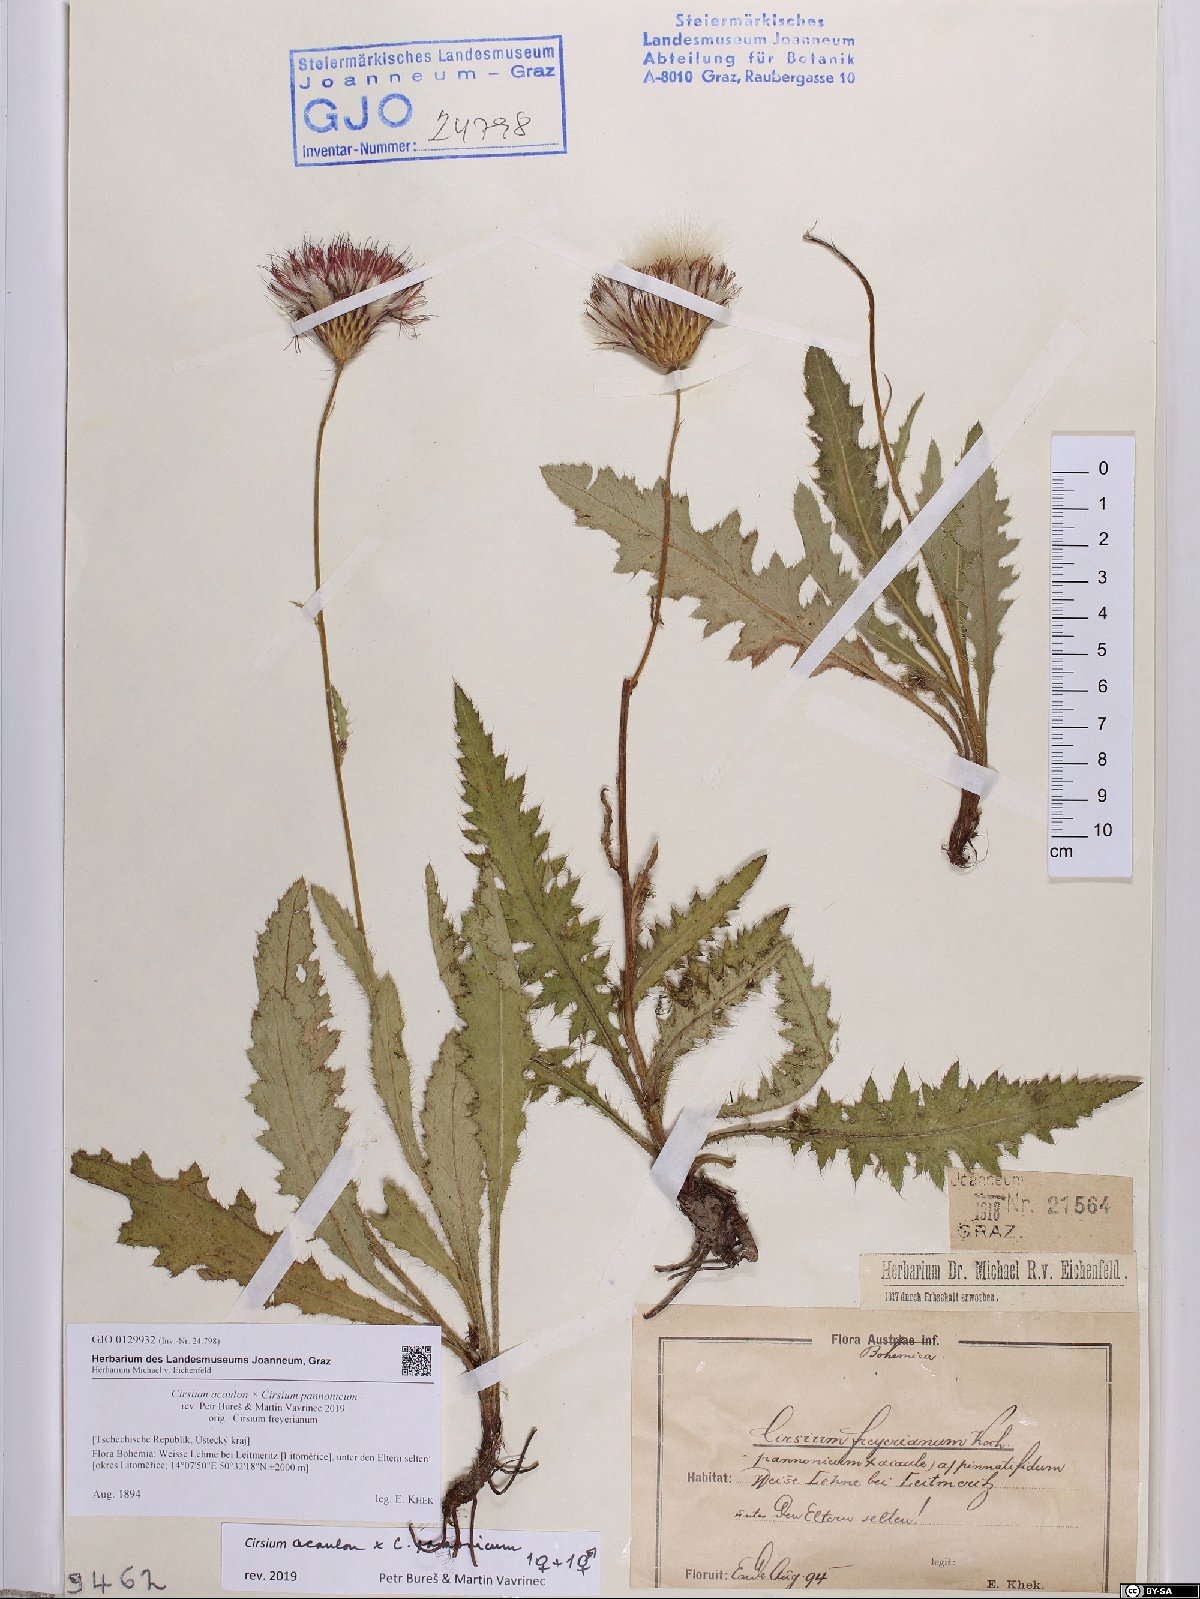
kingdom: Plantae
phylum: Tracheophyta
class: Magnoliopsida
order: Asterales
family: Asteraceae
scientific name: Asteraceae
